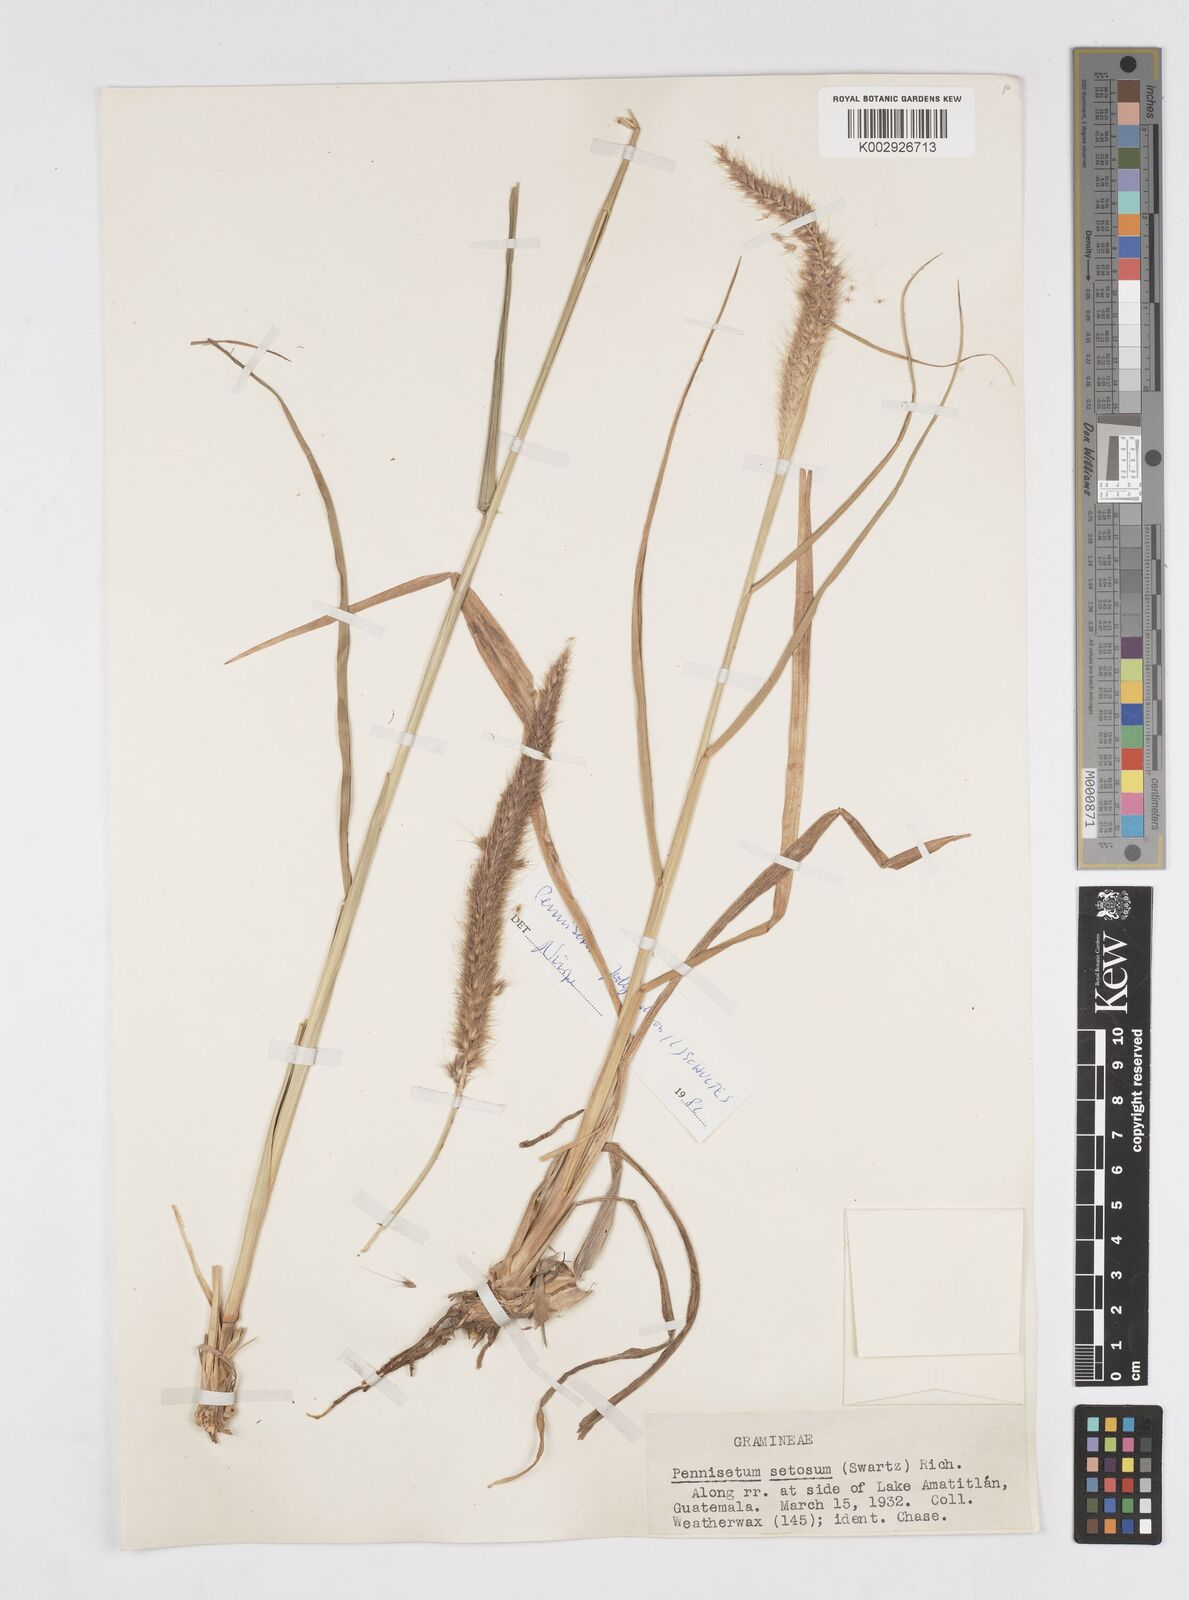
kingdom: Plantae
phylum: Tracheophyta
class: Liliopsida
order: Poales
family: Poaceae
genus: Cenchrus
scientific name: Cenchrus setosus
